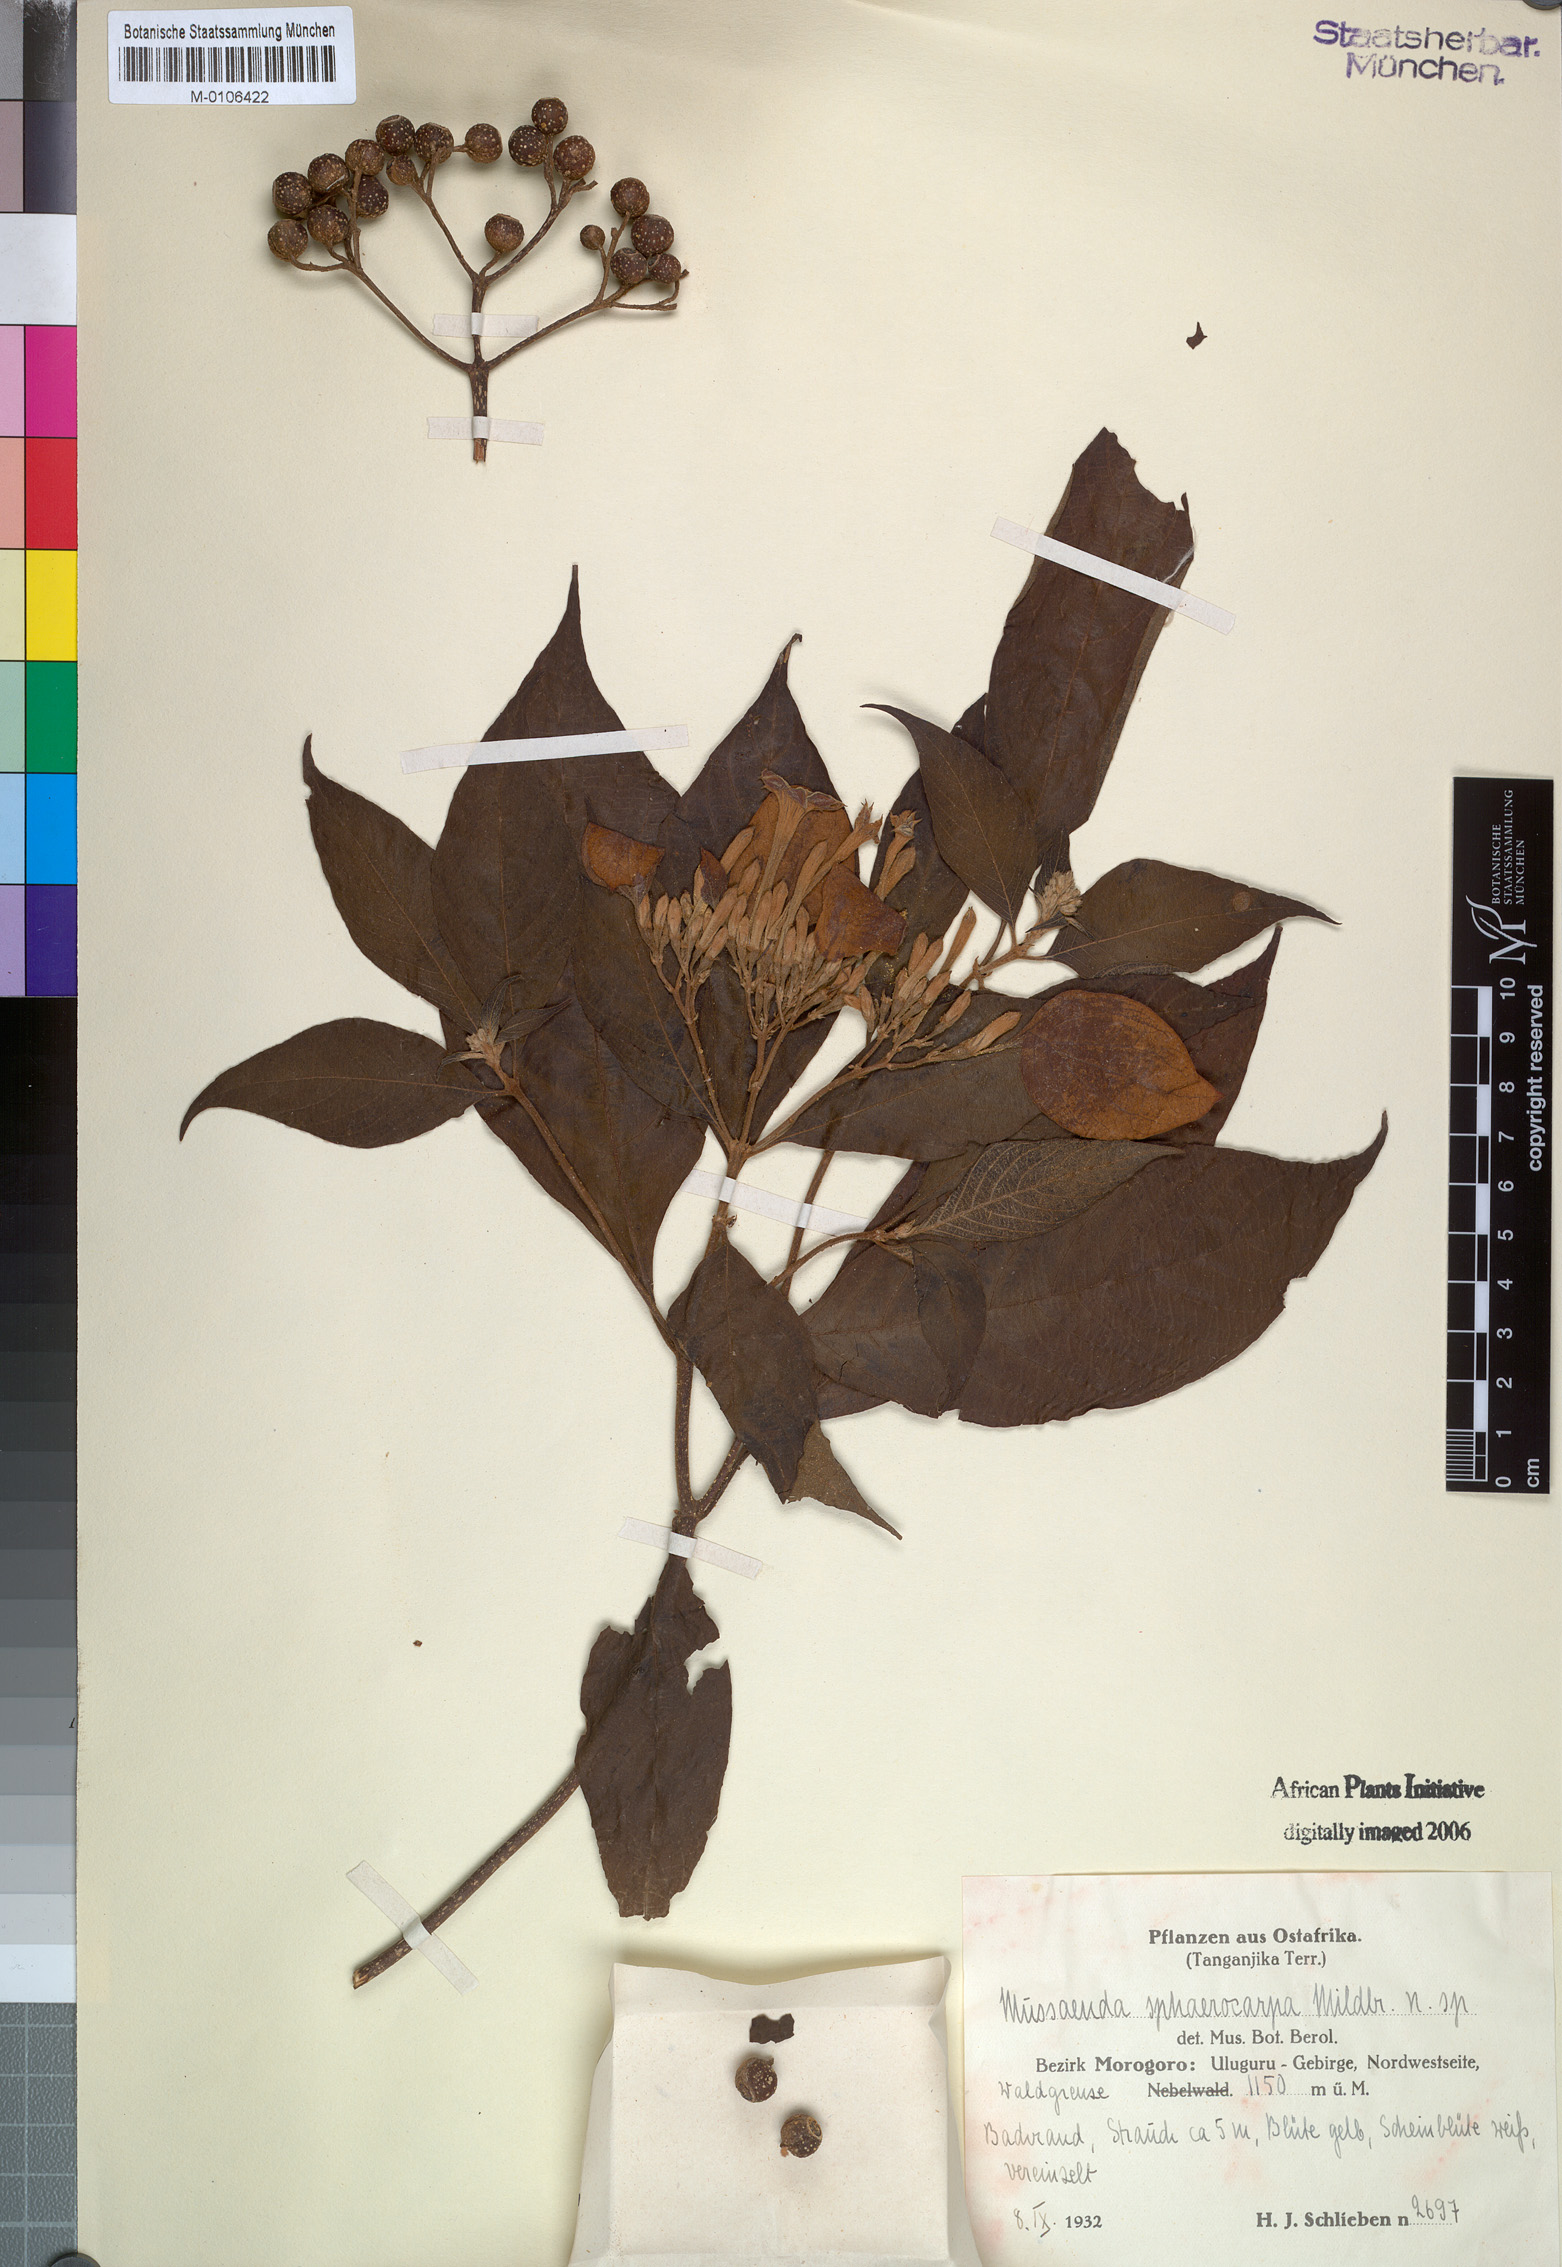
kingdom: Plantae
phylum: Tracheophyta
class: Magnoliopsida
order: Gentianales
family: Rubiaceae
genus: Mussaenda
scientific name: Mussaenda
